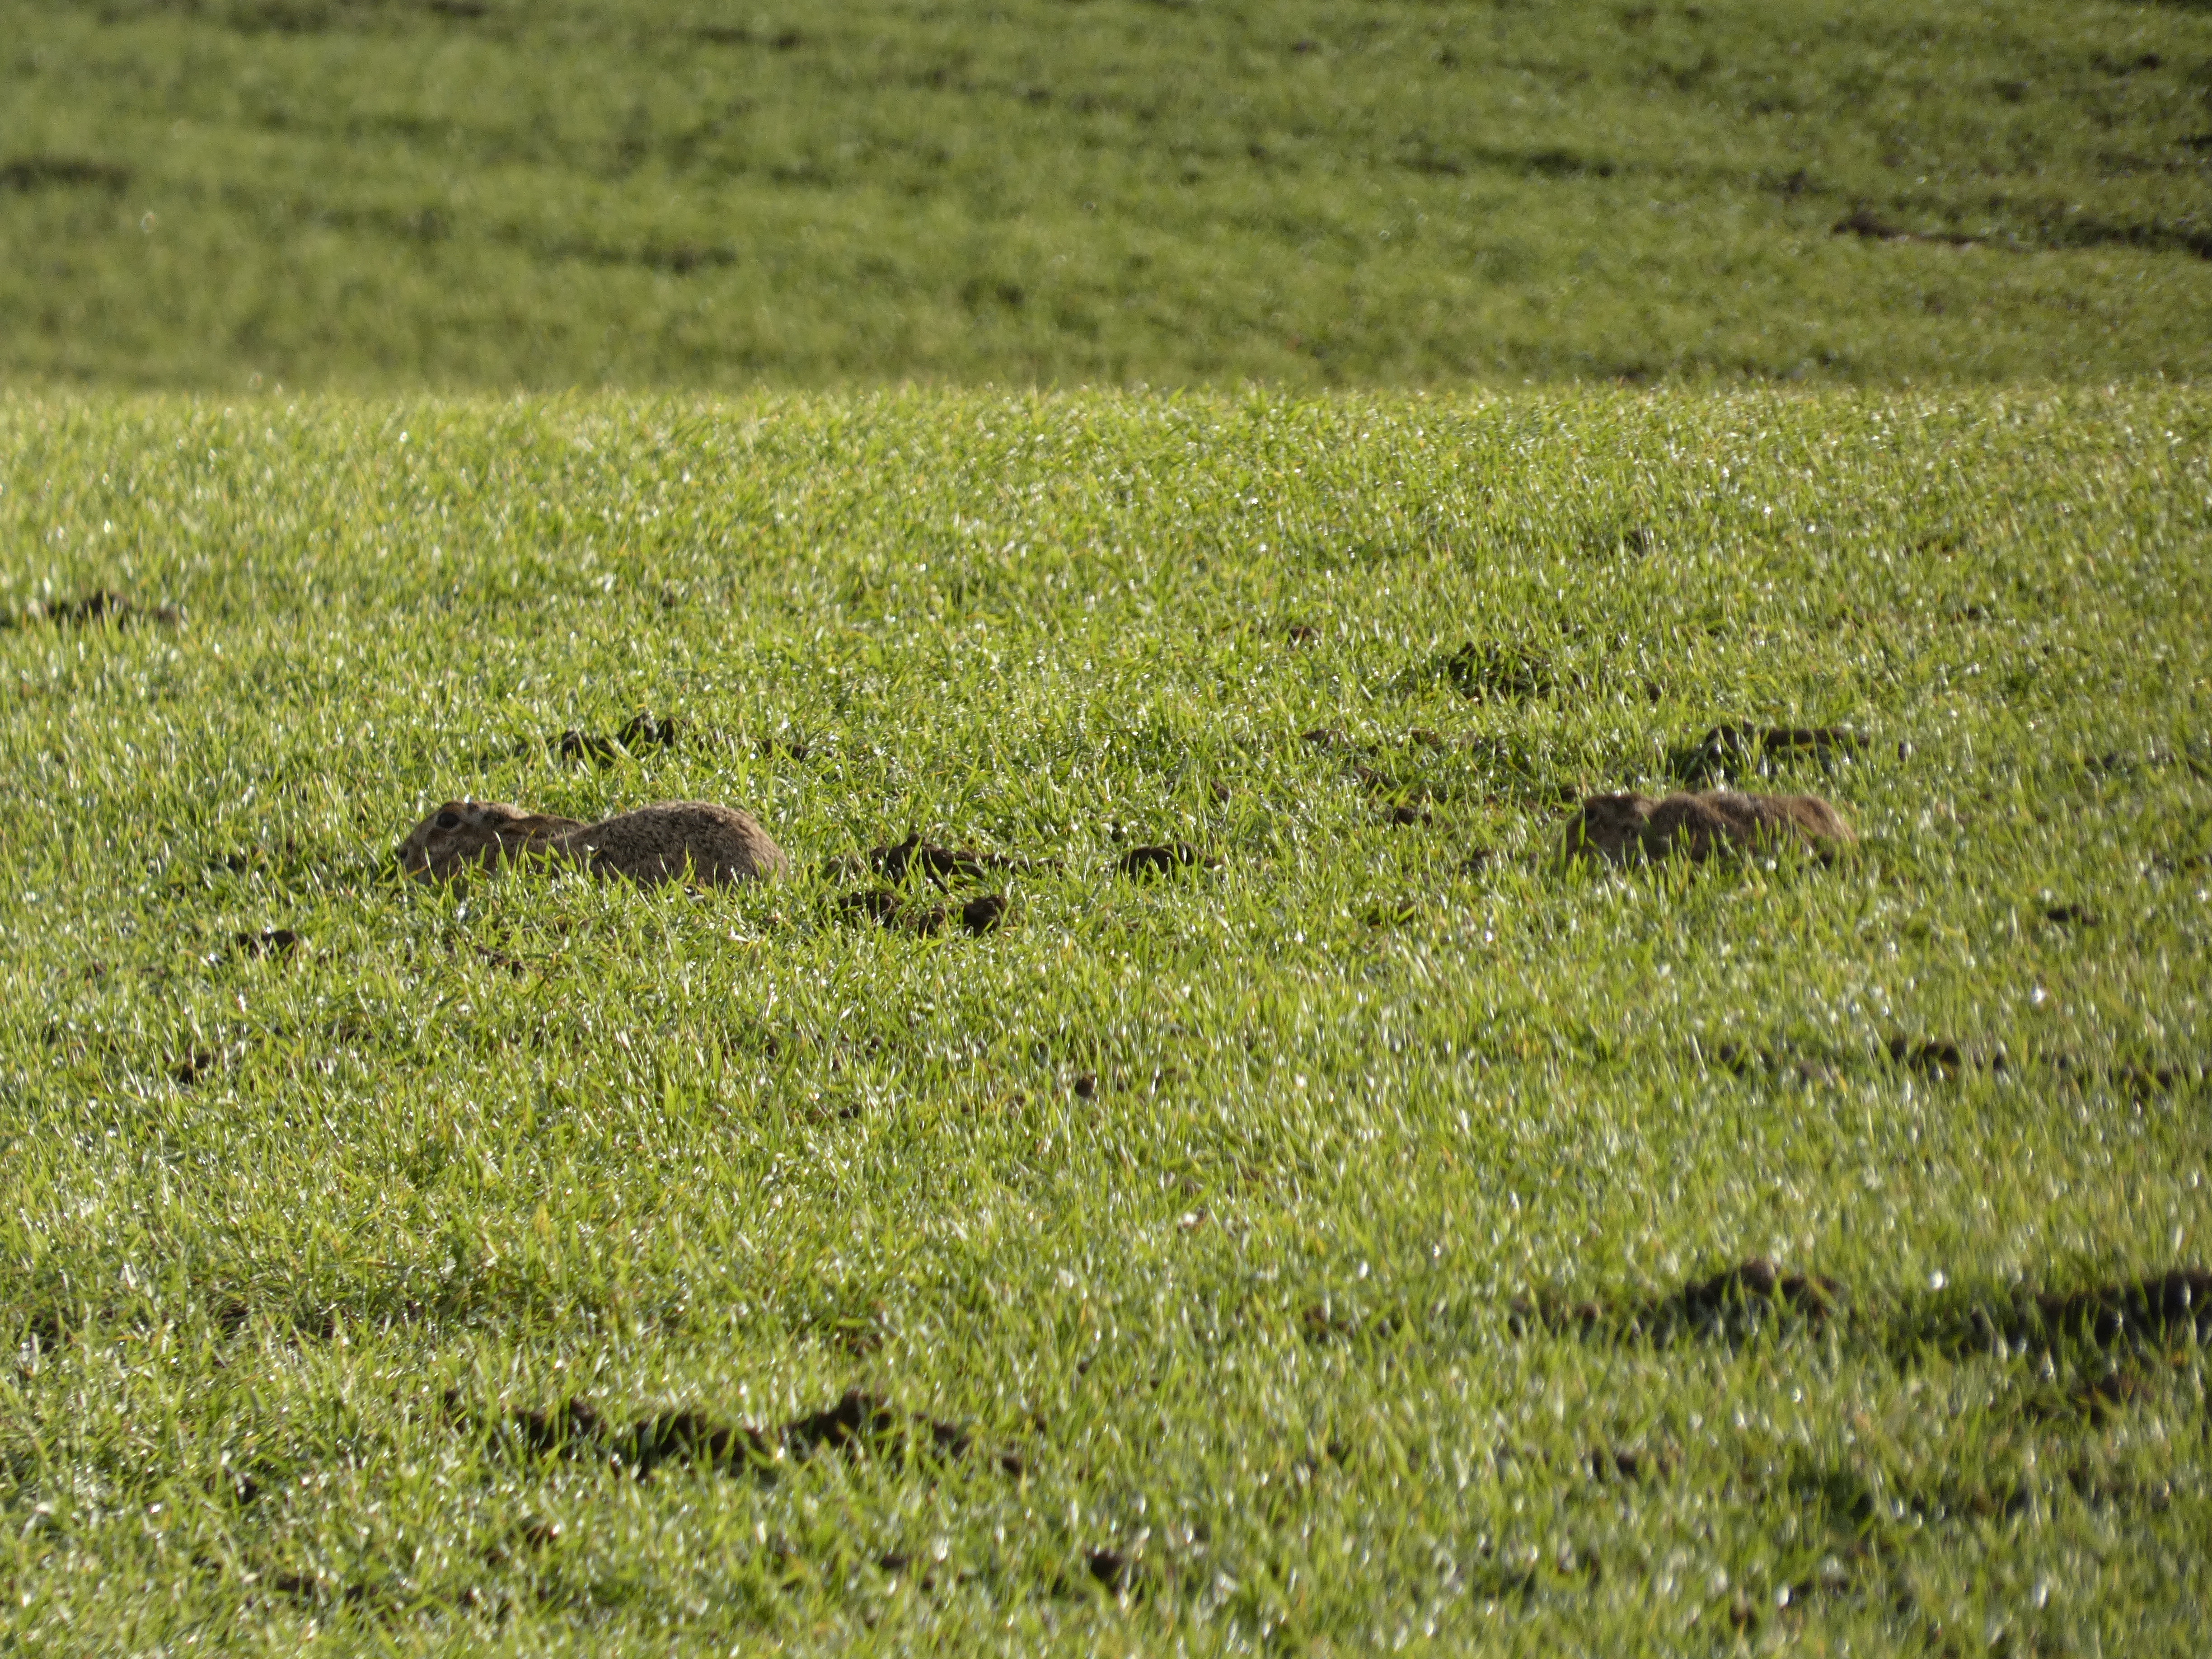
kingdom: Animalia
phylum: Chordata
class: Mammalia
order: Lagomorpha
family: Leporidae
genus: Lepus
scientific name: Lepus europaeus
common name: Hare
